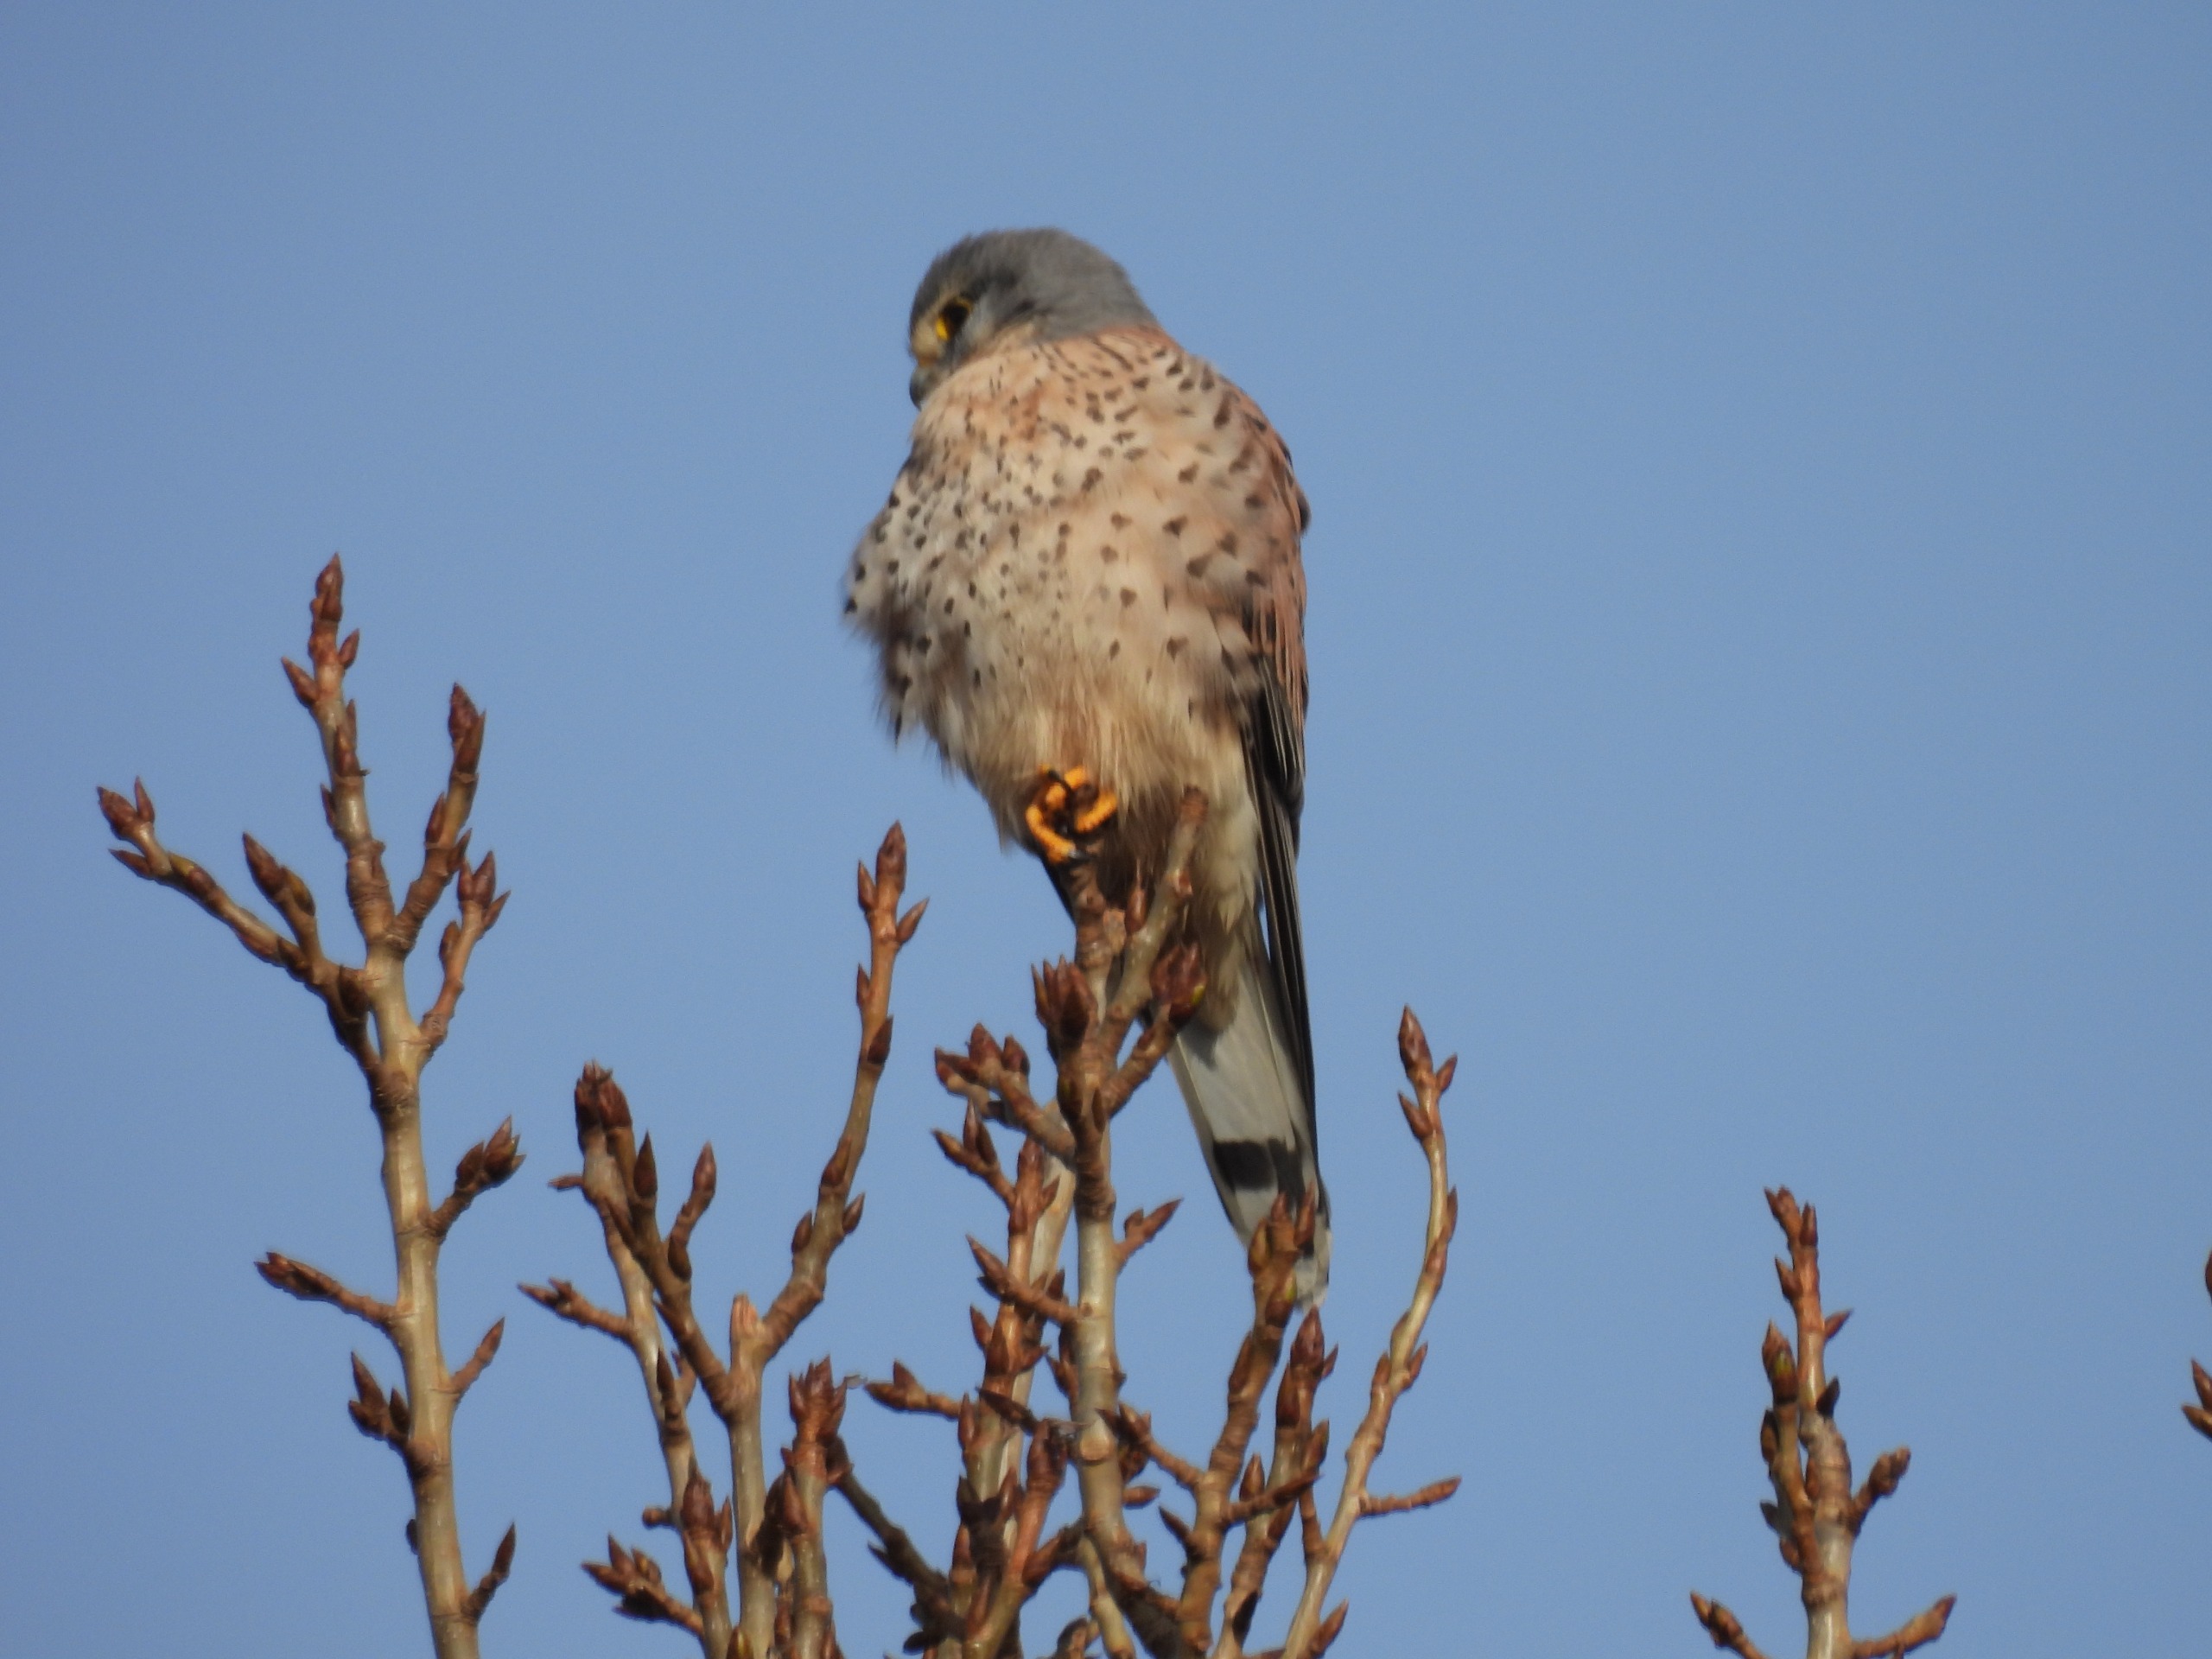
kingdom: Animalia
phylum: Chordata
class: Aves
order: Falconiformes
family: Falconidae
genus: Falco
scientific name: Falco tinnunculus
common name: Tårnfalk
